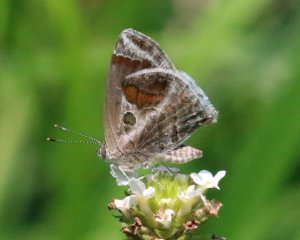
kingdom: Animalia
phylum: Arthropoda
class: Insecta
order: Lepidoptera
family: Lycaenidae
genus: Strymon
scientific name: Strymon bazochii
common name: Lantana Scrub-Hairstreak
